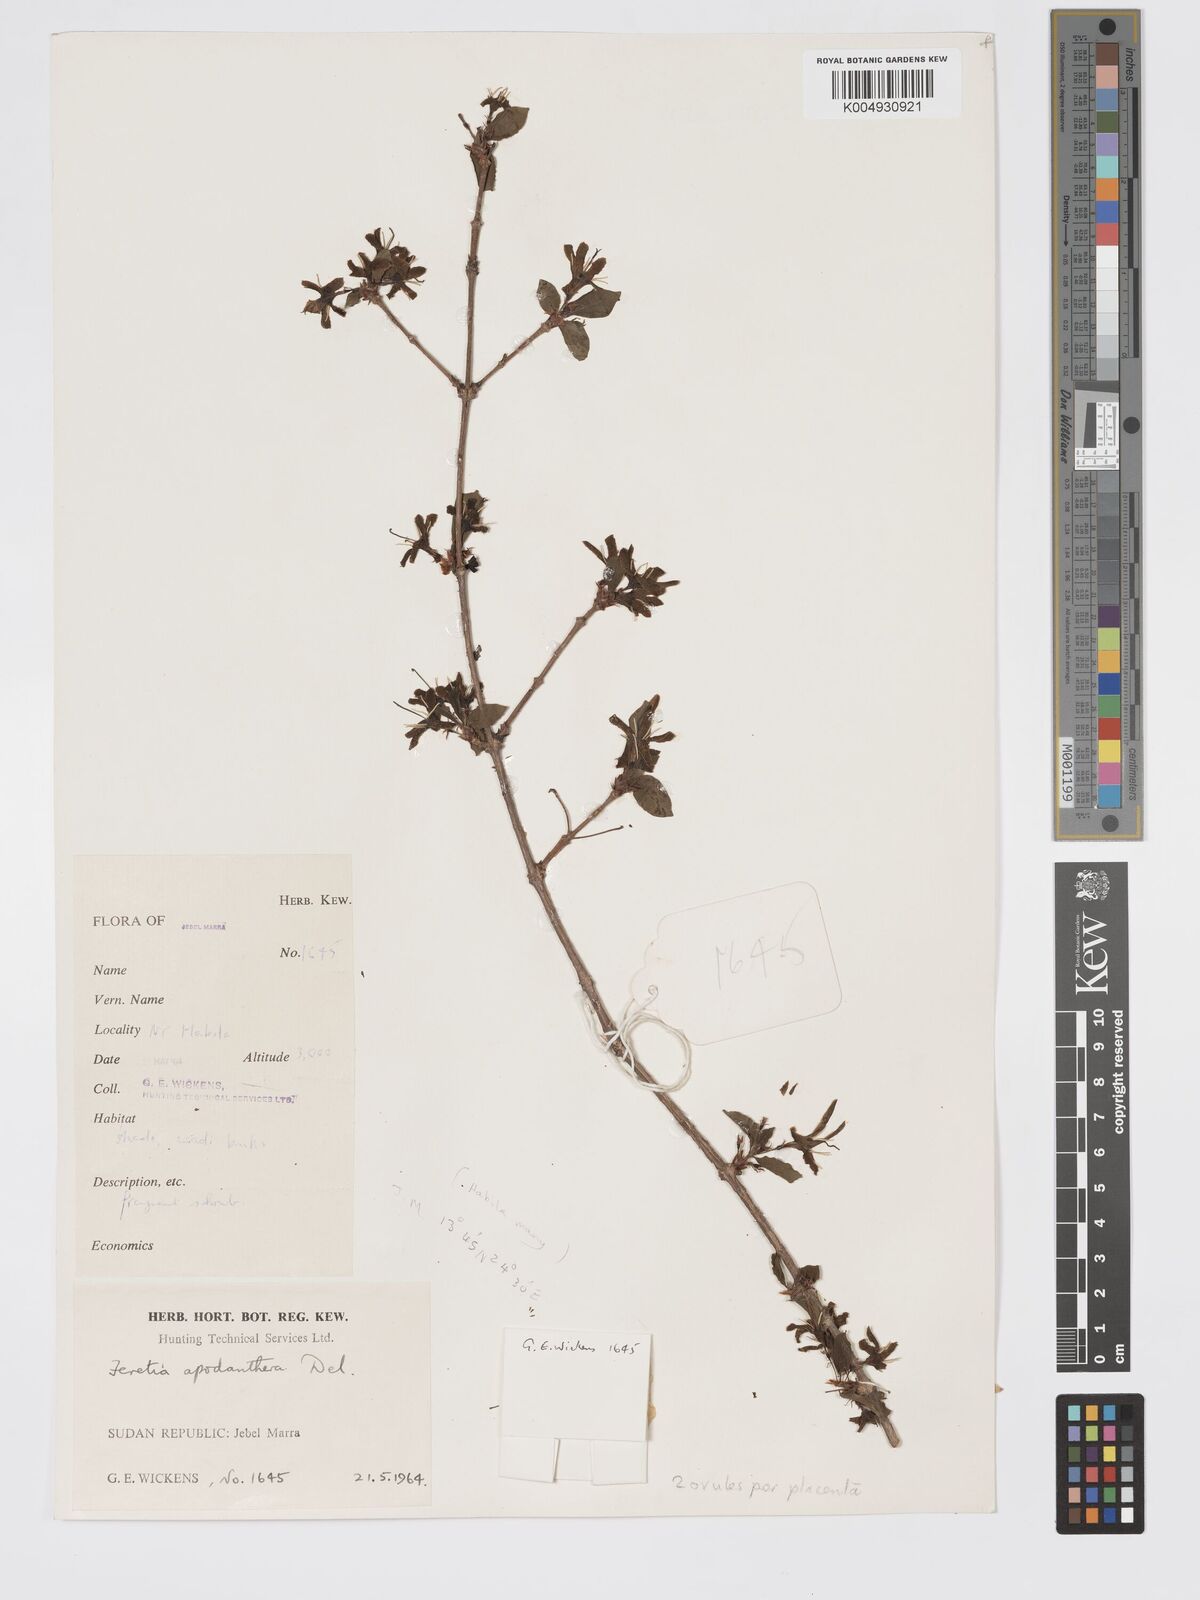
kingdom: Plantae
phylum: Tracheophyta
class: Magnoliopsida
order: Gentianales
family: Rubiaceae
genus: Feretia
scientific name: Feretia apodanthera
